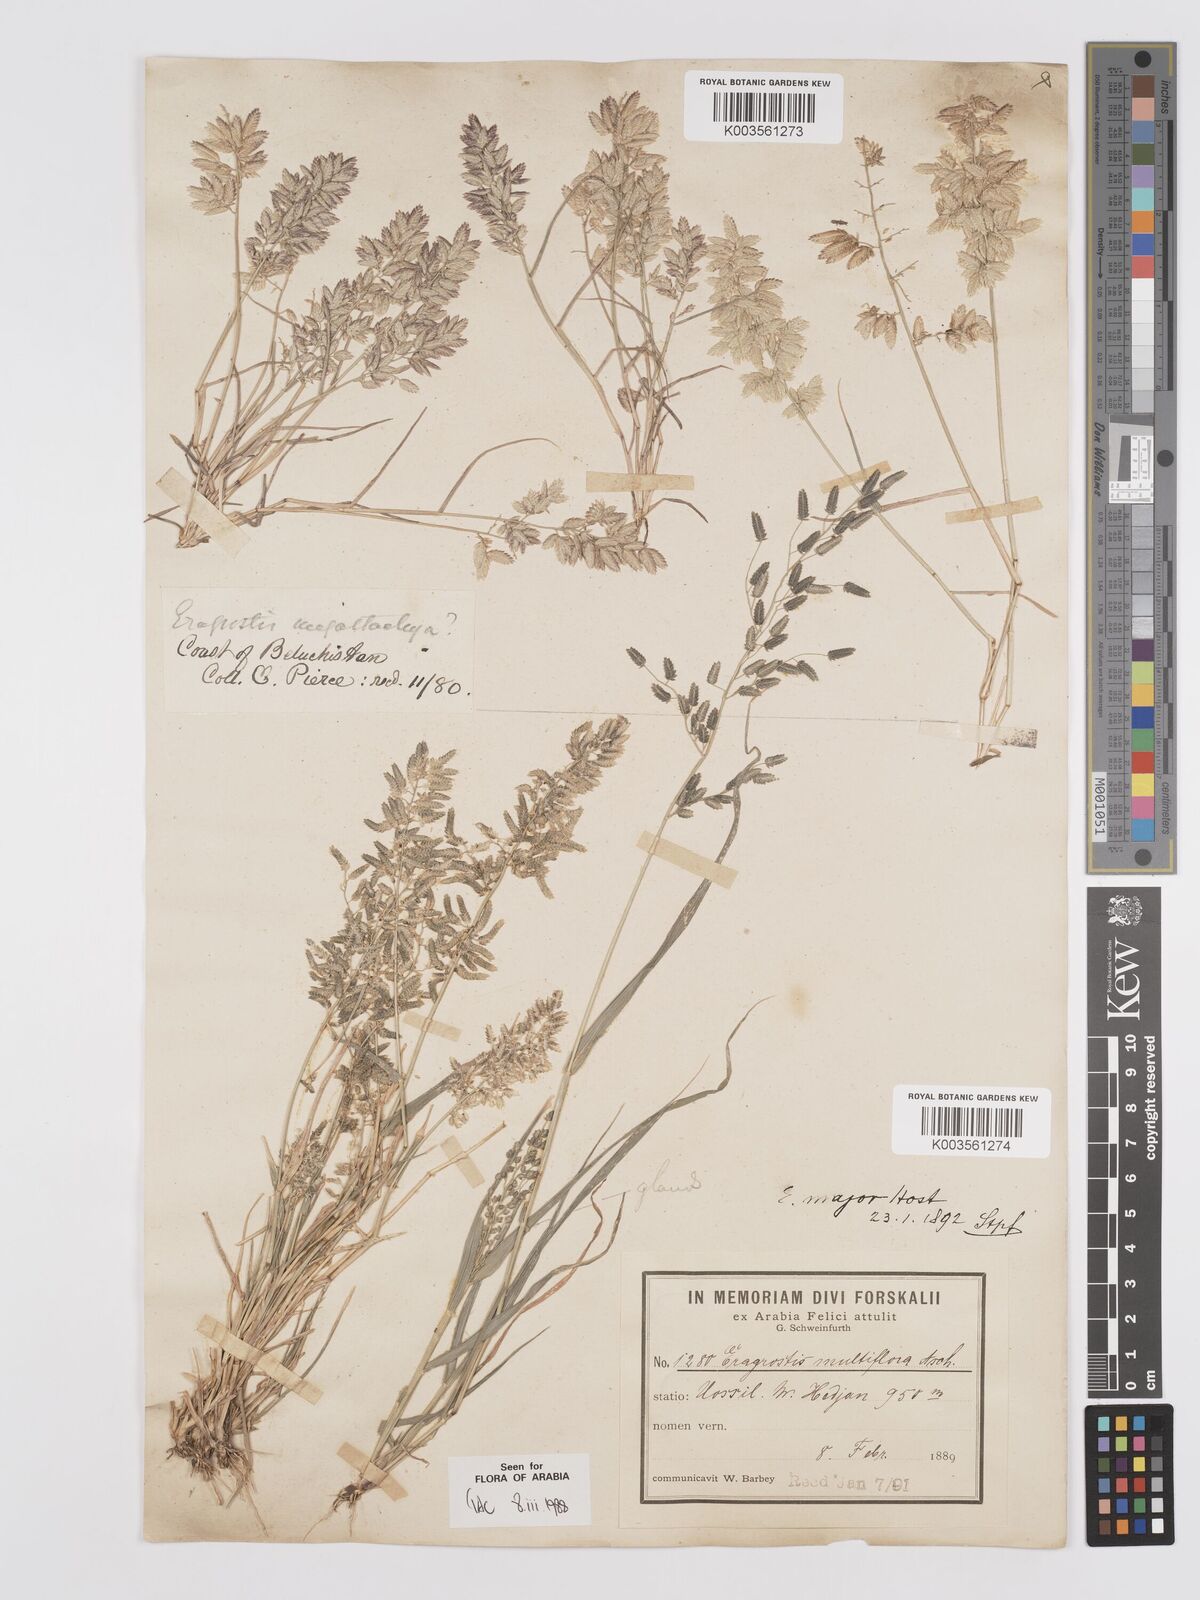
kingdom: Plantae
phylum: Tracheophyta
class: Liliopsida
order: Poales
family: Poaceae
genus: Eragrostis
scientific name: Eragrostis cilianensis
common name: Stinkgrass
